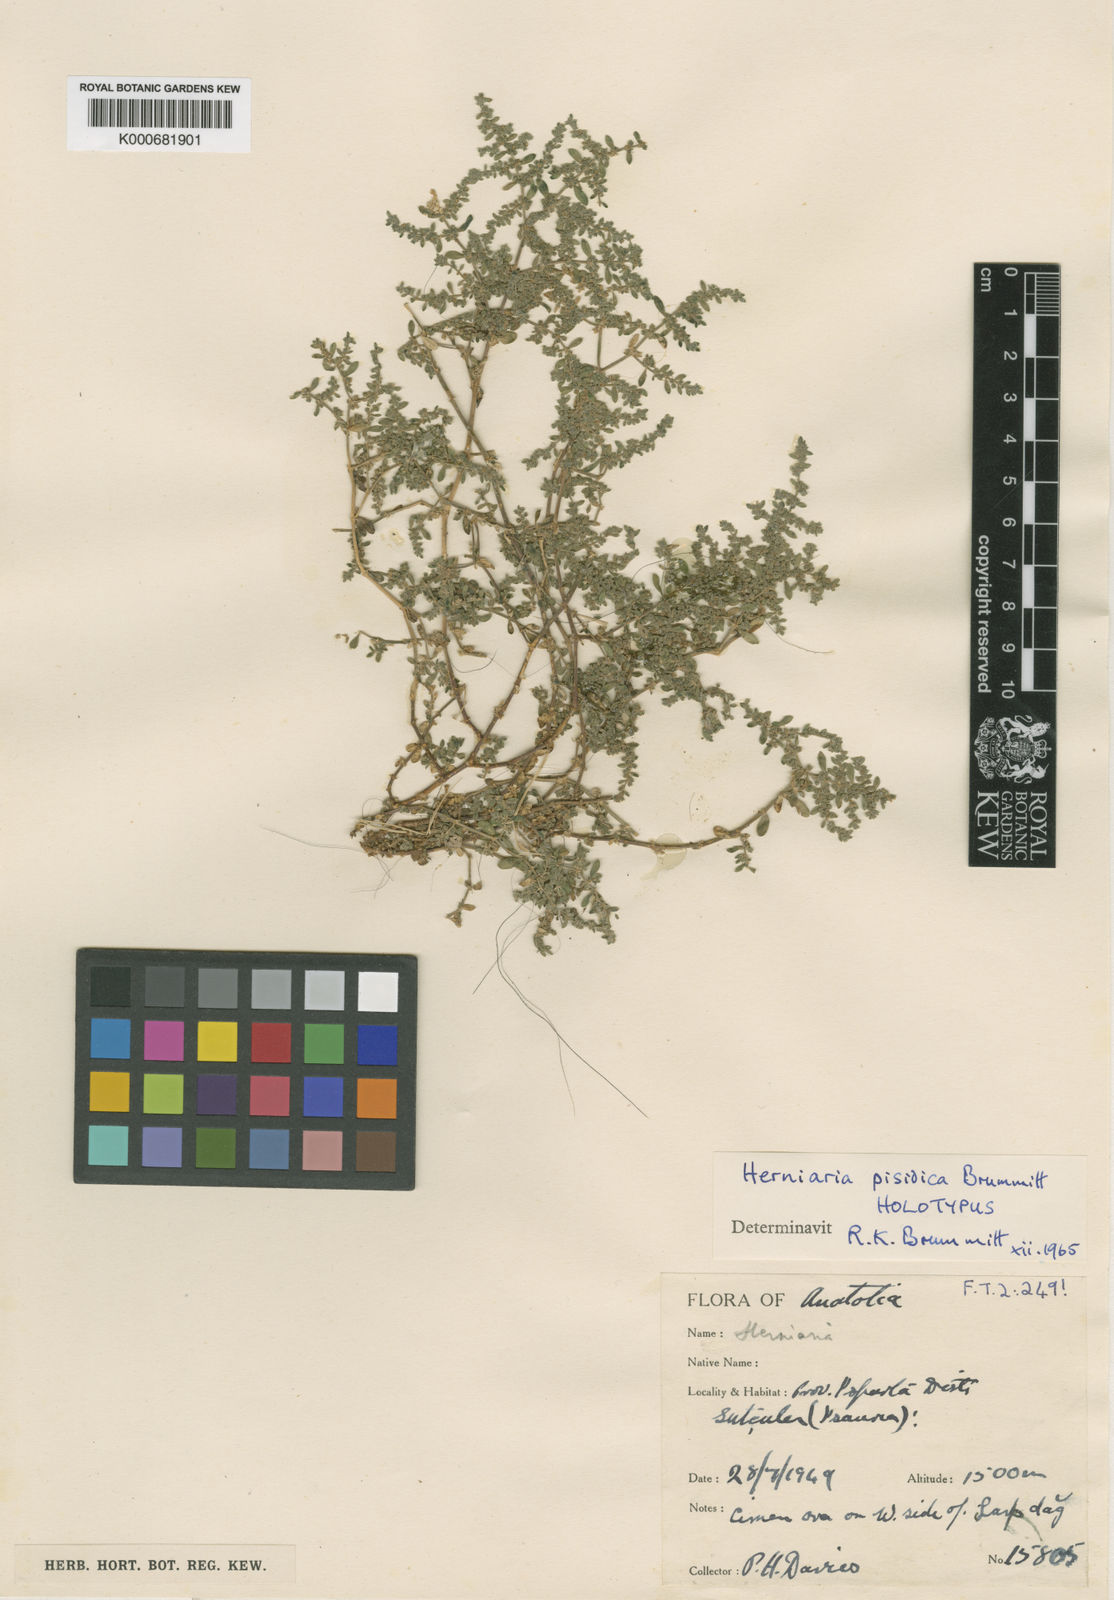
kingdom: Plantae
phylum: Tracheophyta
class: Magnoliopsida
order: Caryophyllales
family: Caryophyllaceae
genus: Herniaria
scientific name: Herniaria pisidica
